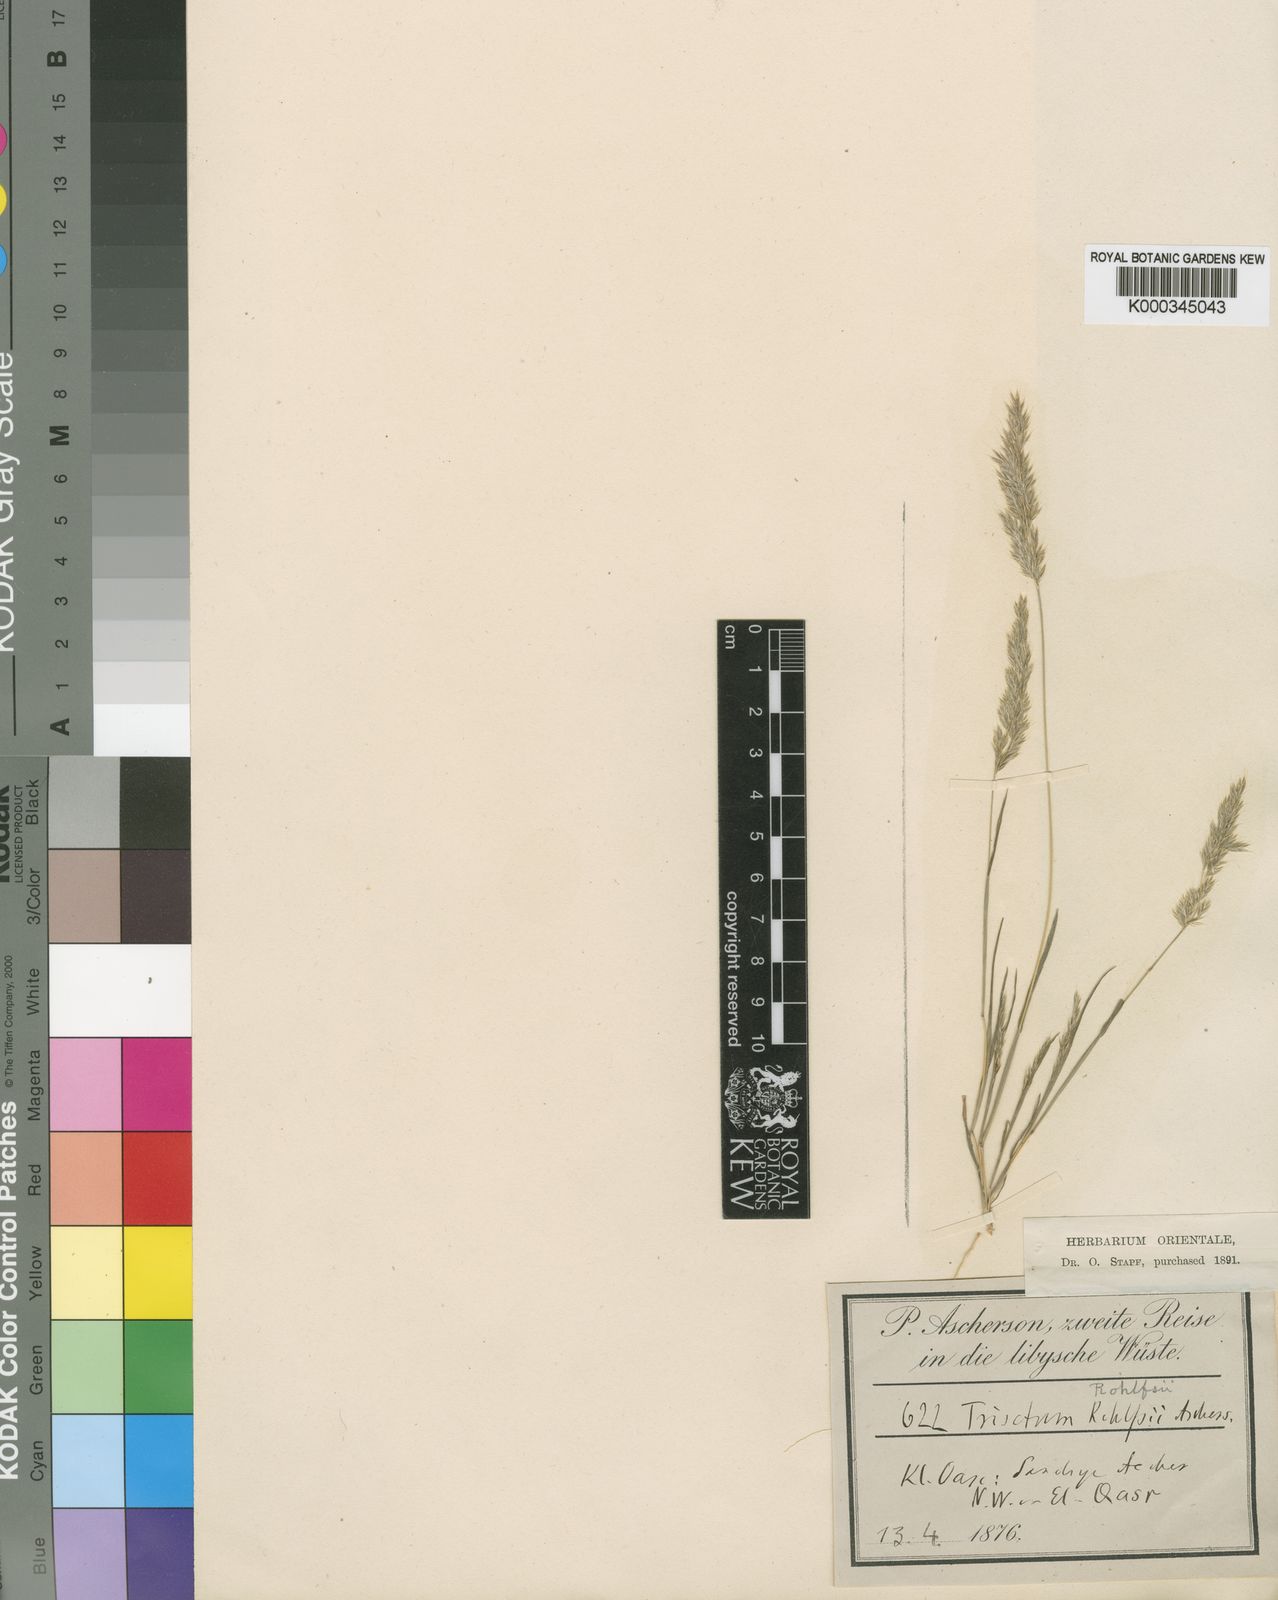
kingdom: Plantae
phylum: Tracheophyta
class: Liliopsida
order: Poales
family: Poaceae
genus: Rostraria
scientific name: Rostraria rohlfsii
